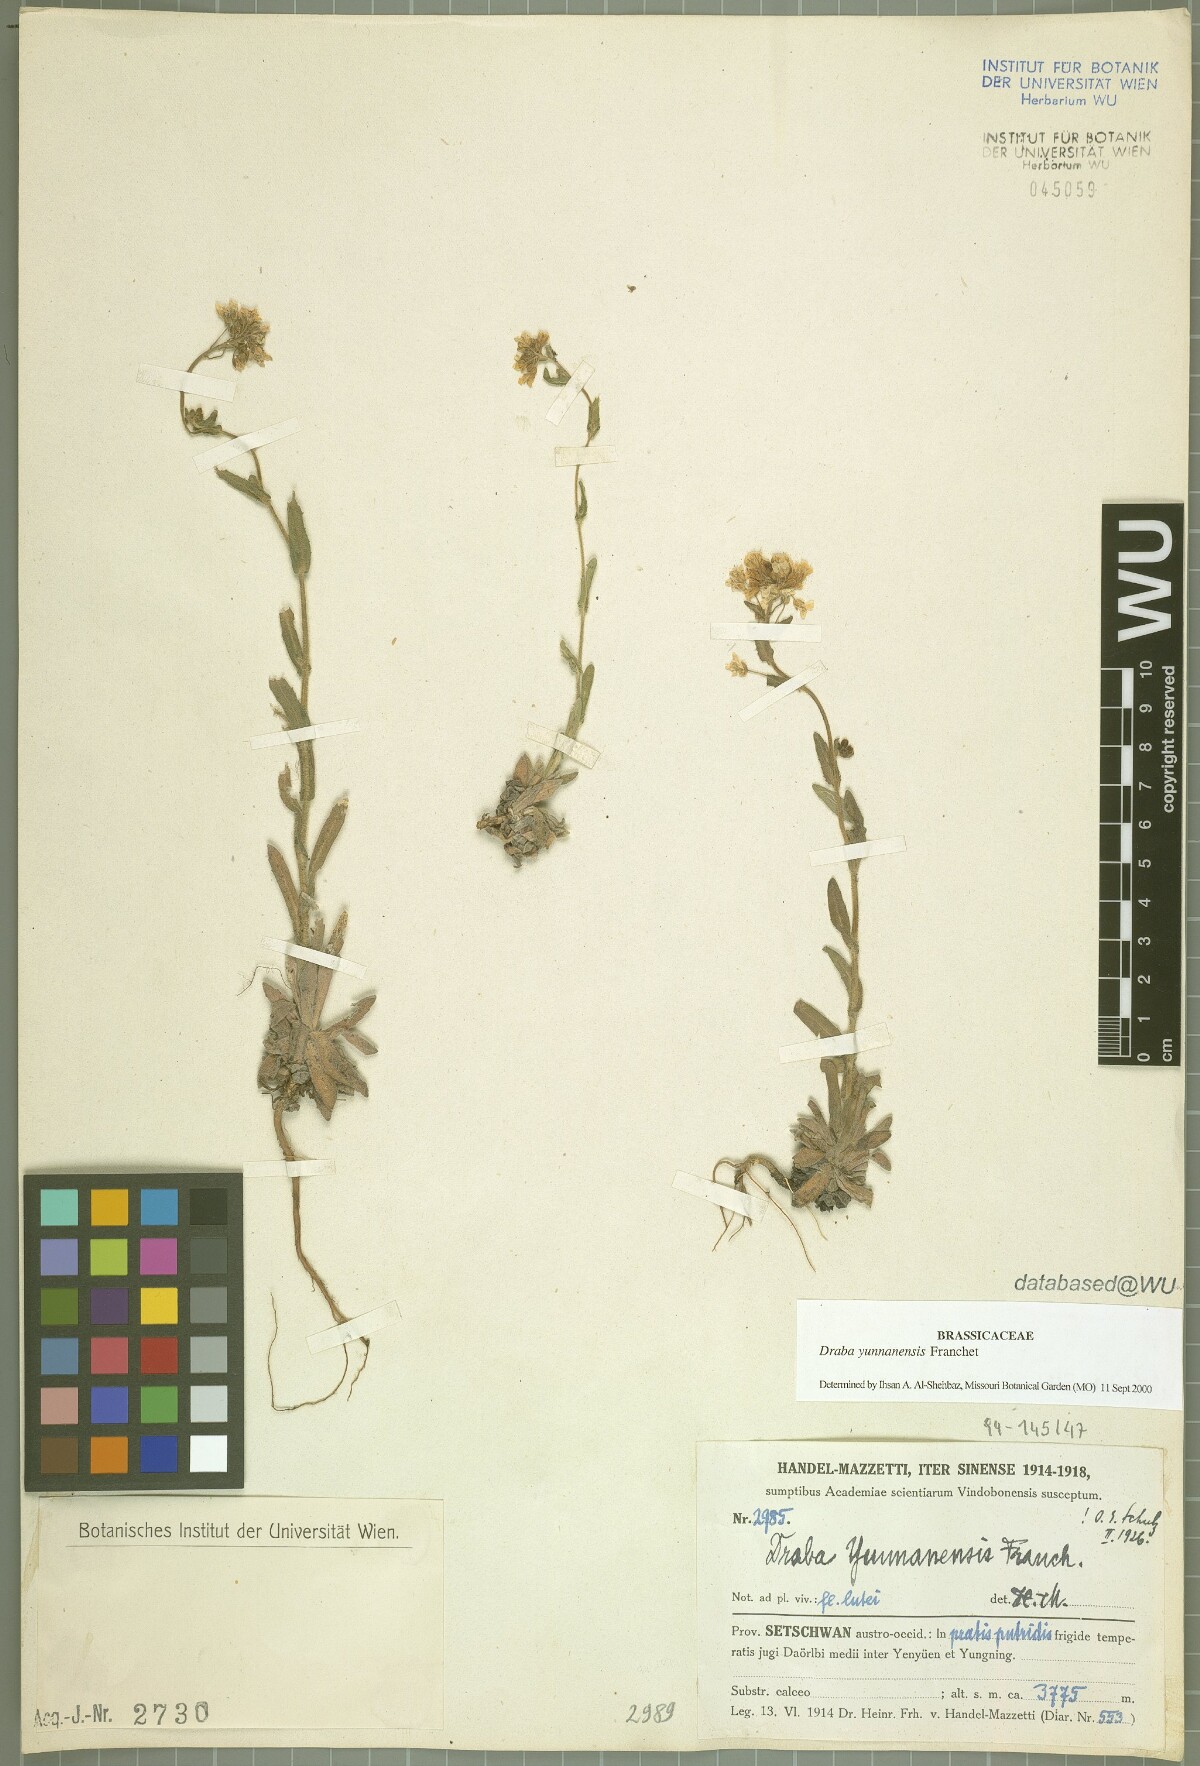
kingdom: Plantae
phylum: Tracheophyta
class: Magnoliopsida
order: Brassicales
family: Brassicaceae
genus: Draba
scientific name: Draba yunnanensis
